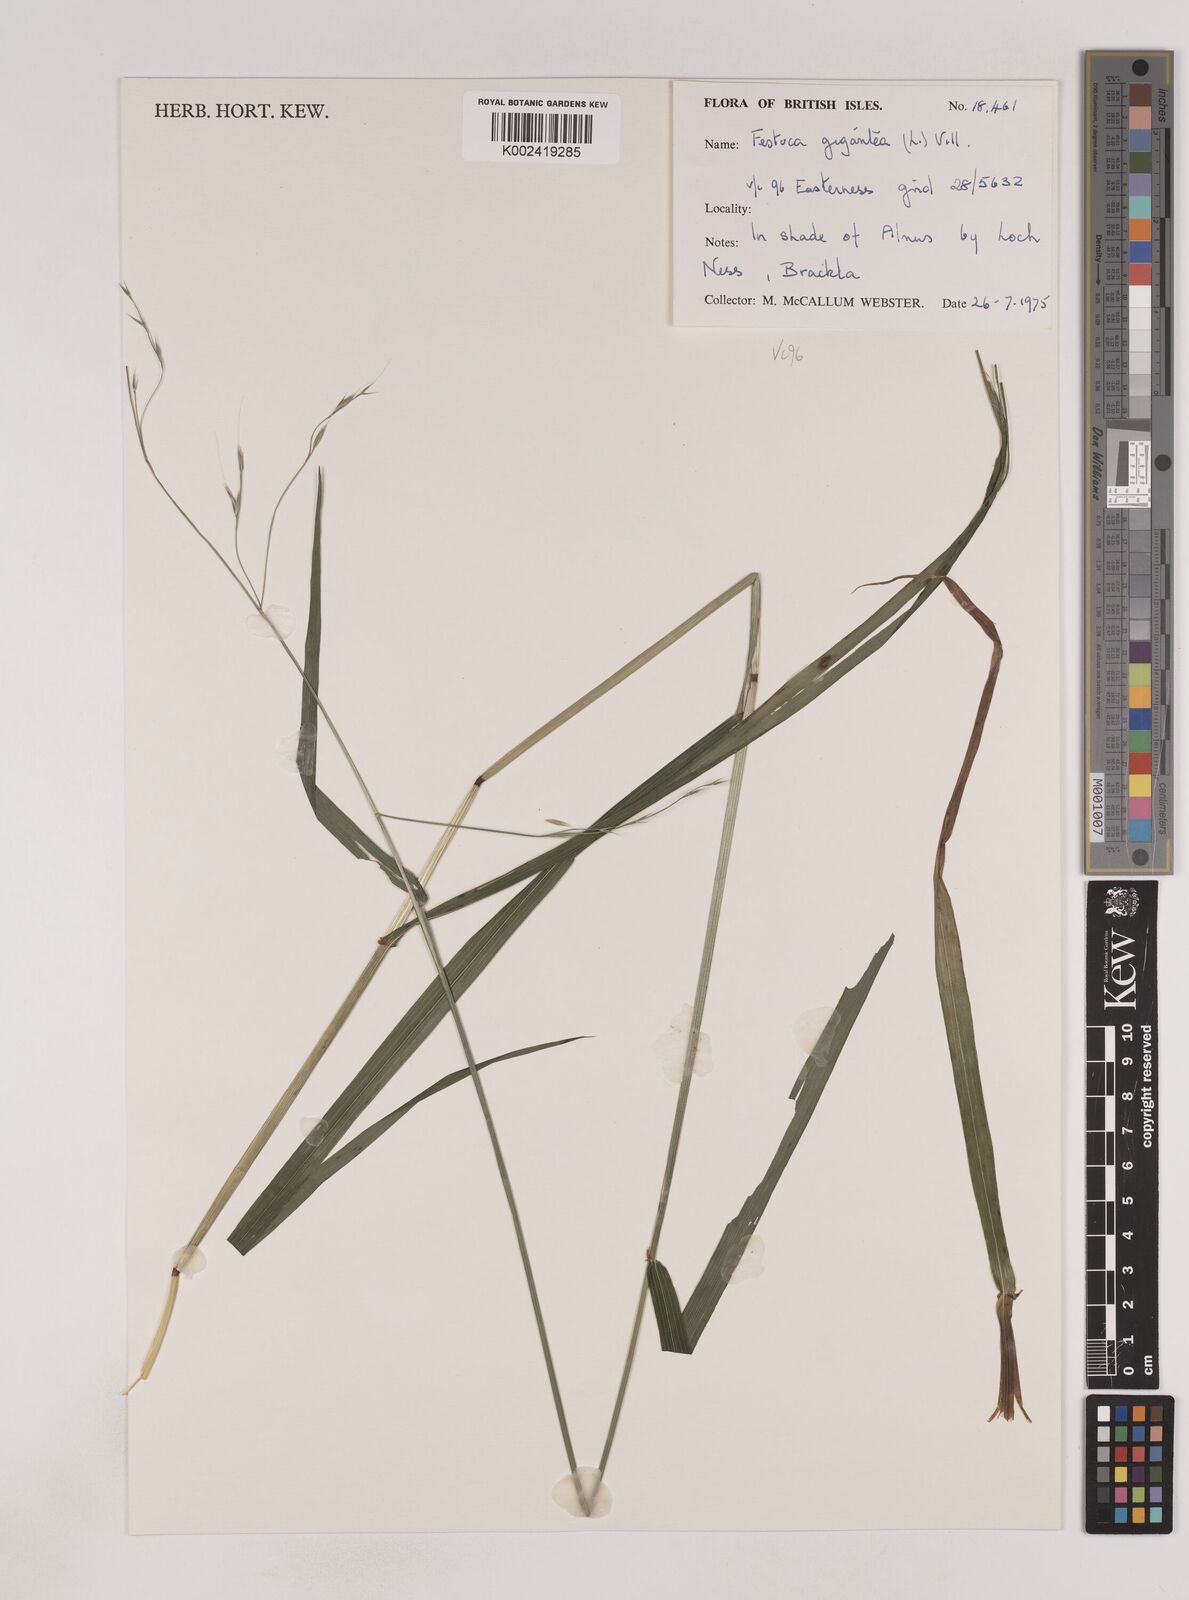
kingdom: Plantae
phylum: Tracheophyta
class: Liliopsida
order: Poales
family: Poaceae
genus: Lolium
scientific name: Lolium giganteum
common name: Giant fescue
